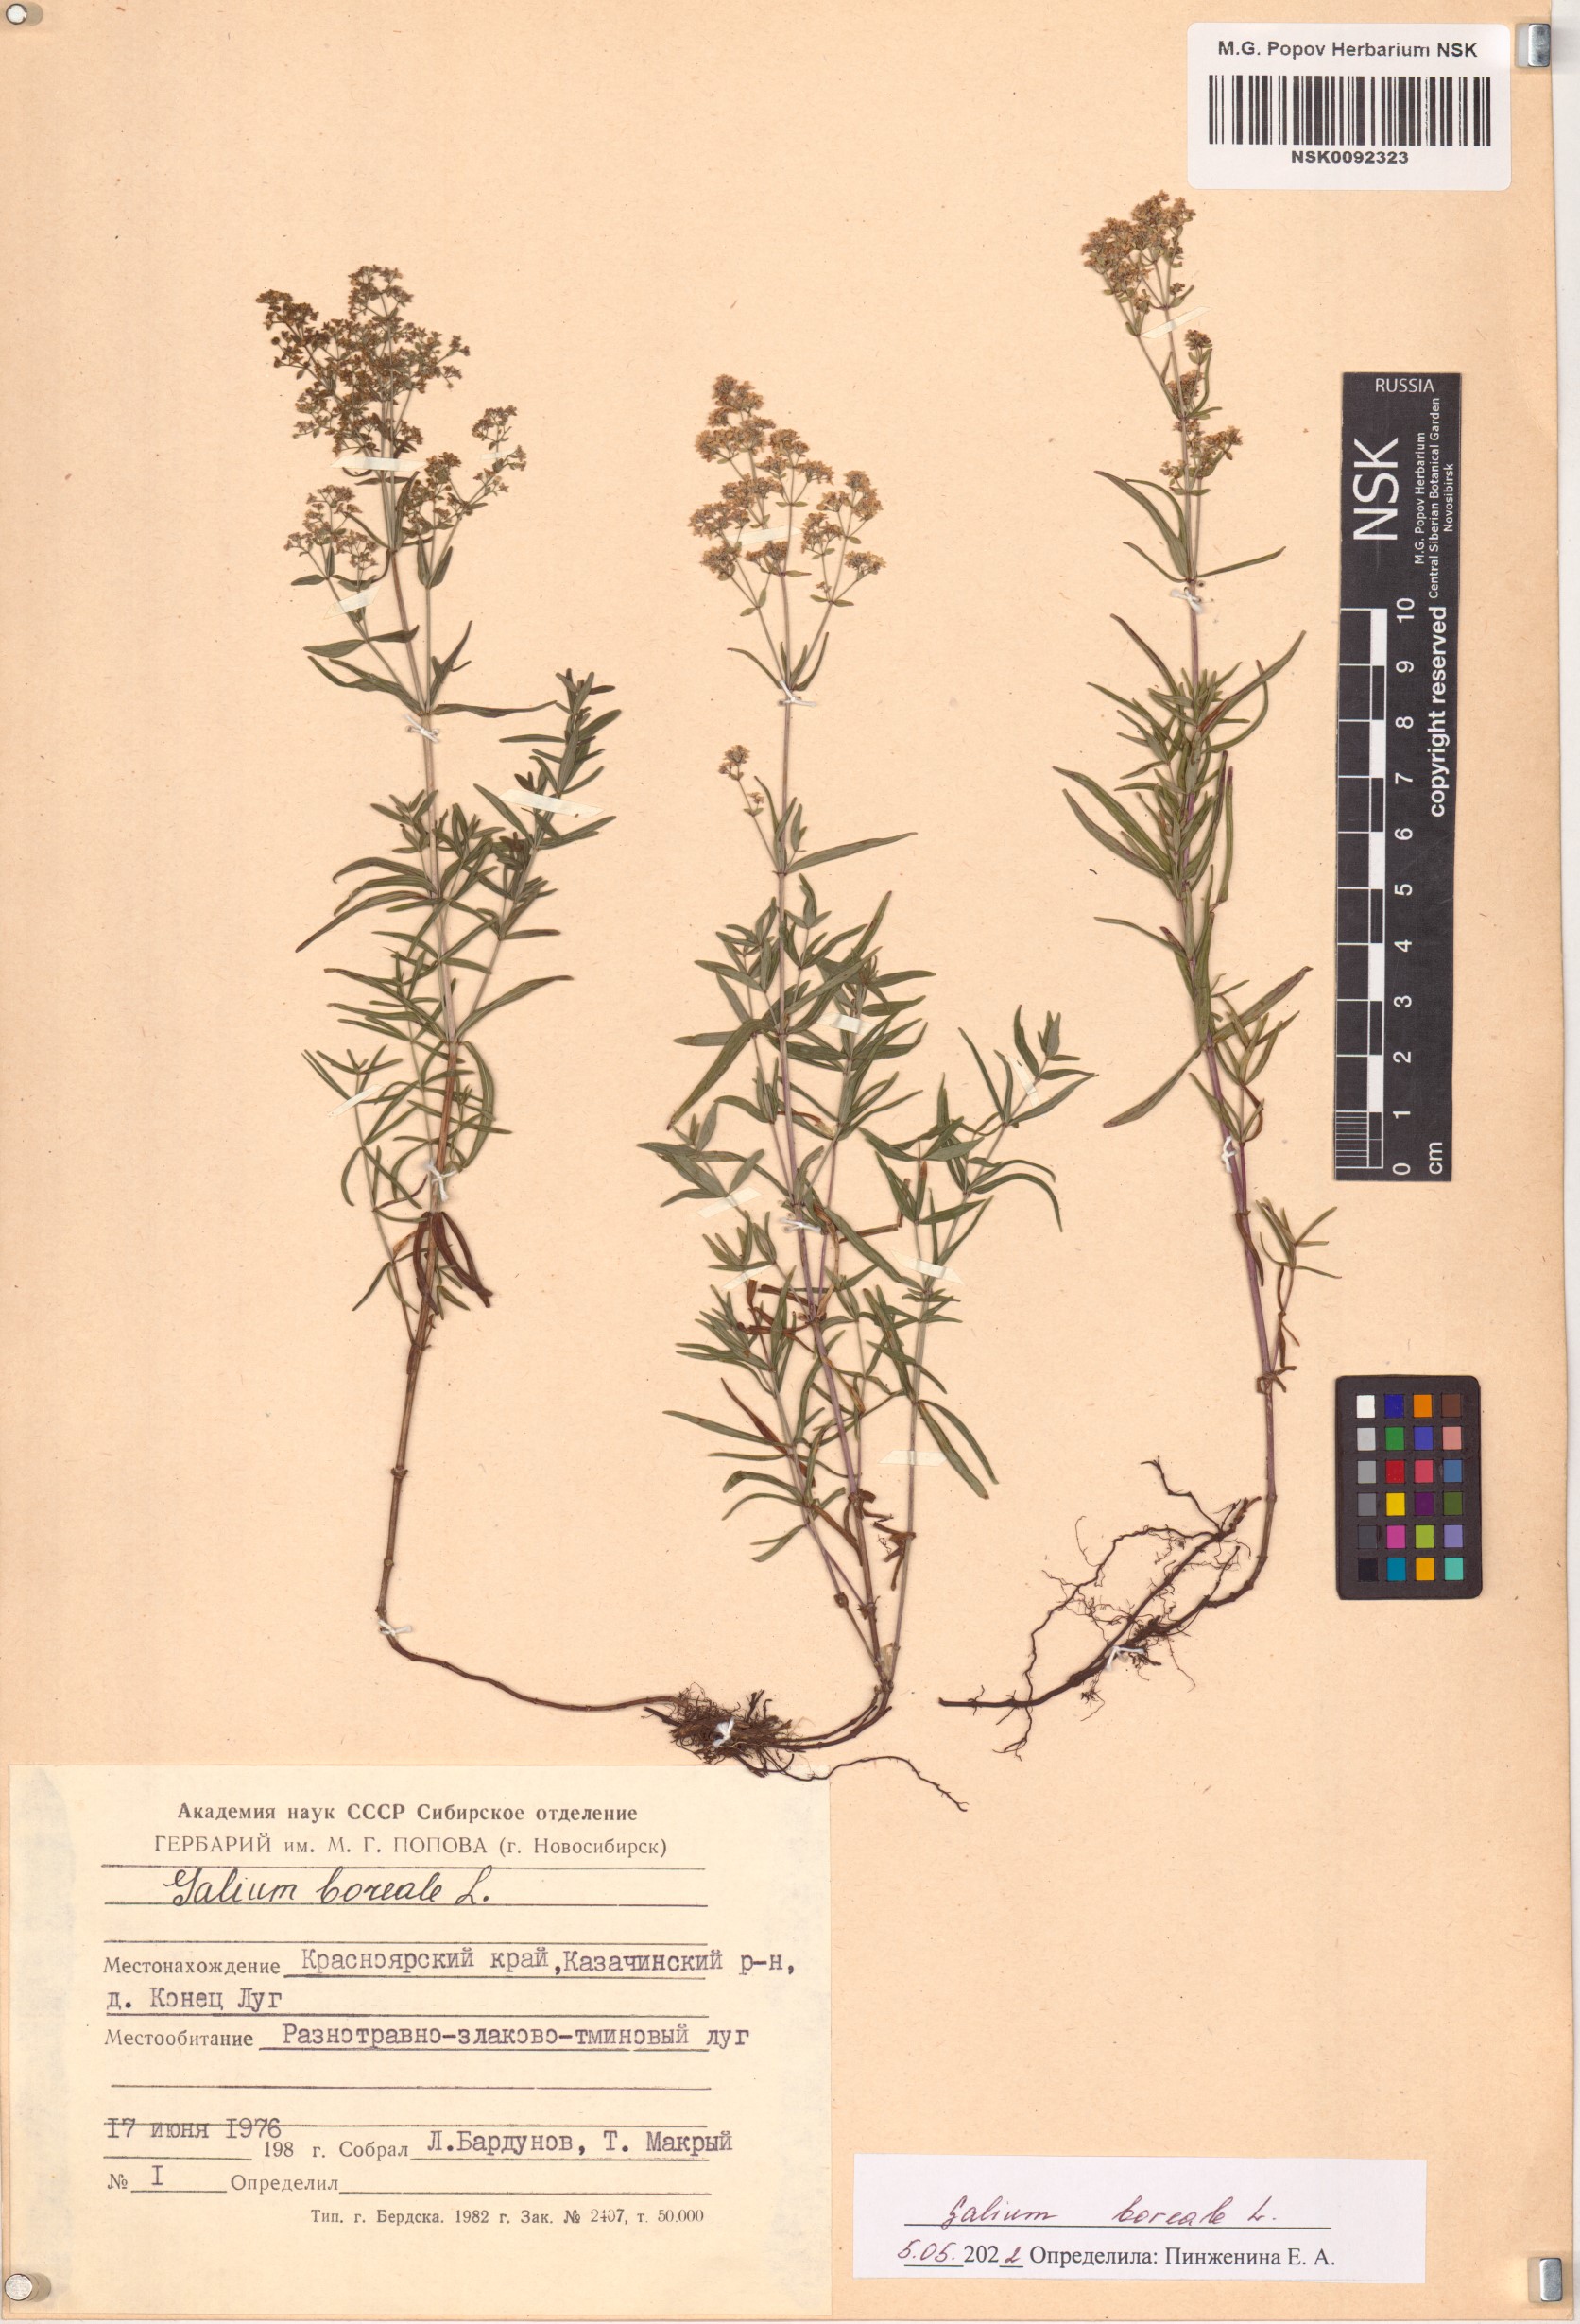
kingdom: Plantae
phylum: Tracheophyta
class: Magnoliopsida
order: Gentianales
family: Rubiaceae
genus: Galium
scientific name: Galium boreale
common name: Northern bedstraw
